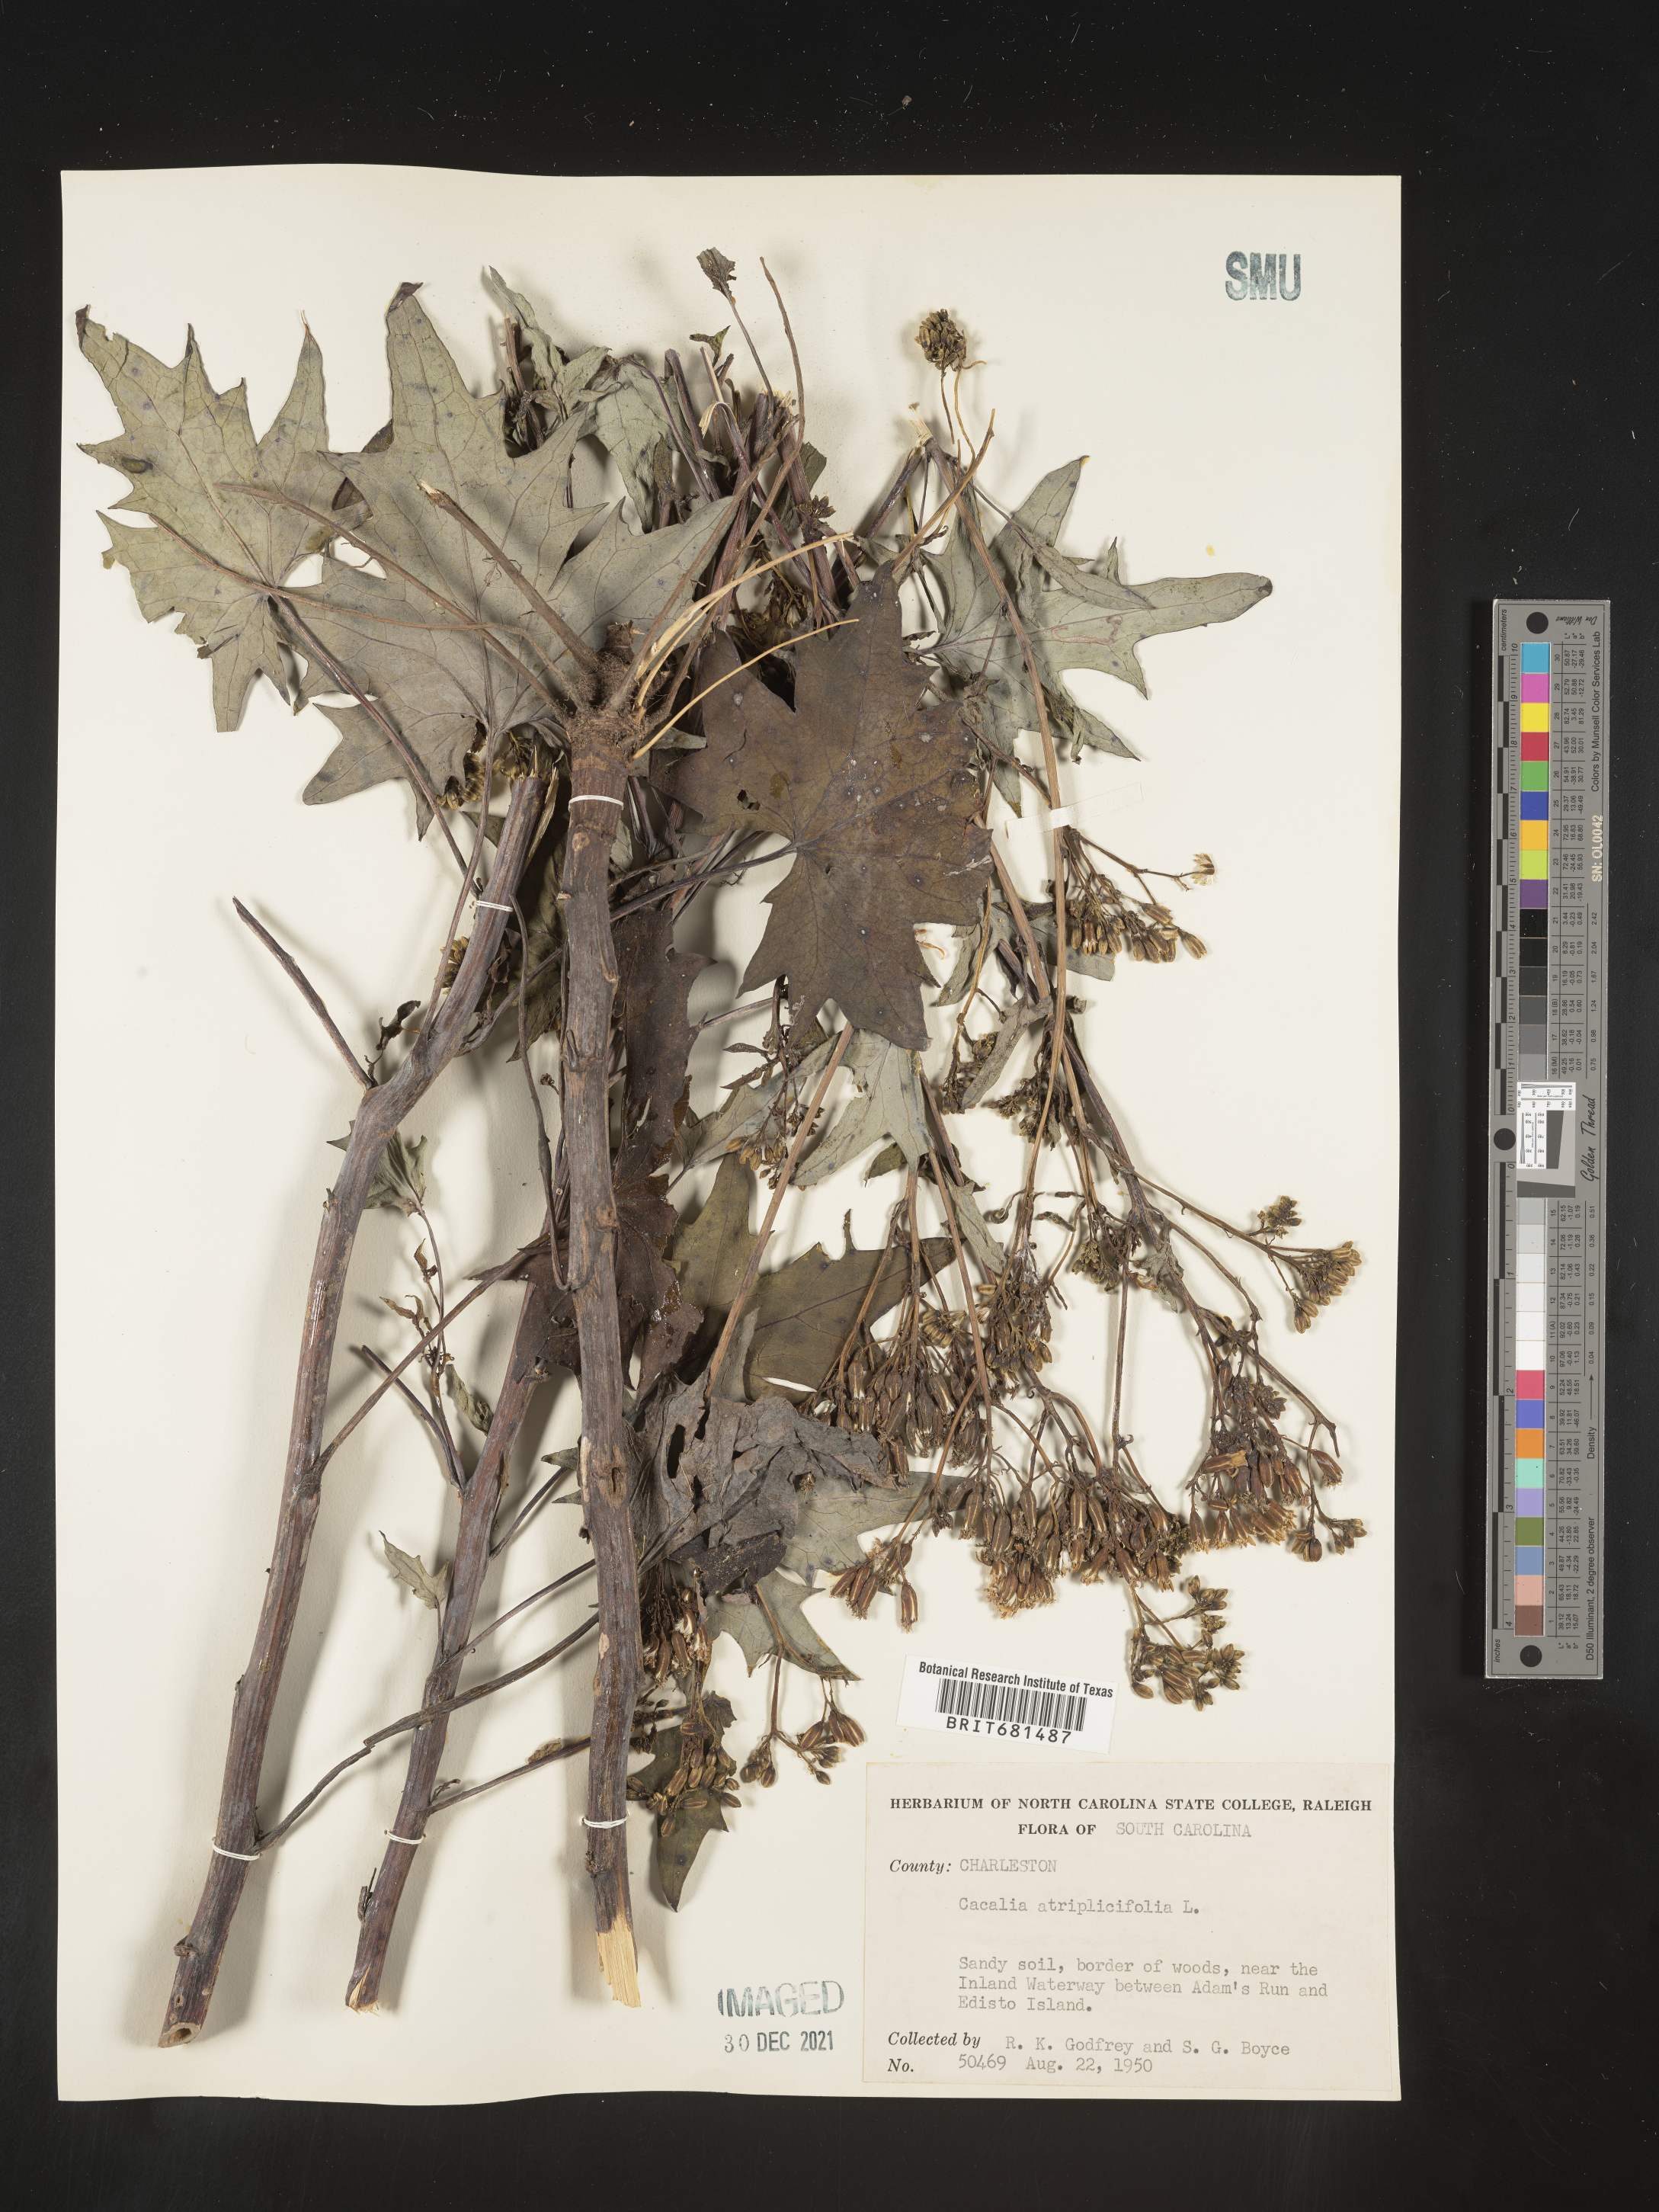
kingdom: Plantae
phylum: Tracheophyta
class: Magnoliopsida
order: Asterales
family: Asteraceae
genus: Arnoglossum
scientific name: Arnoglossum atriplicifolium
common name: Pale indian-plantain
